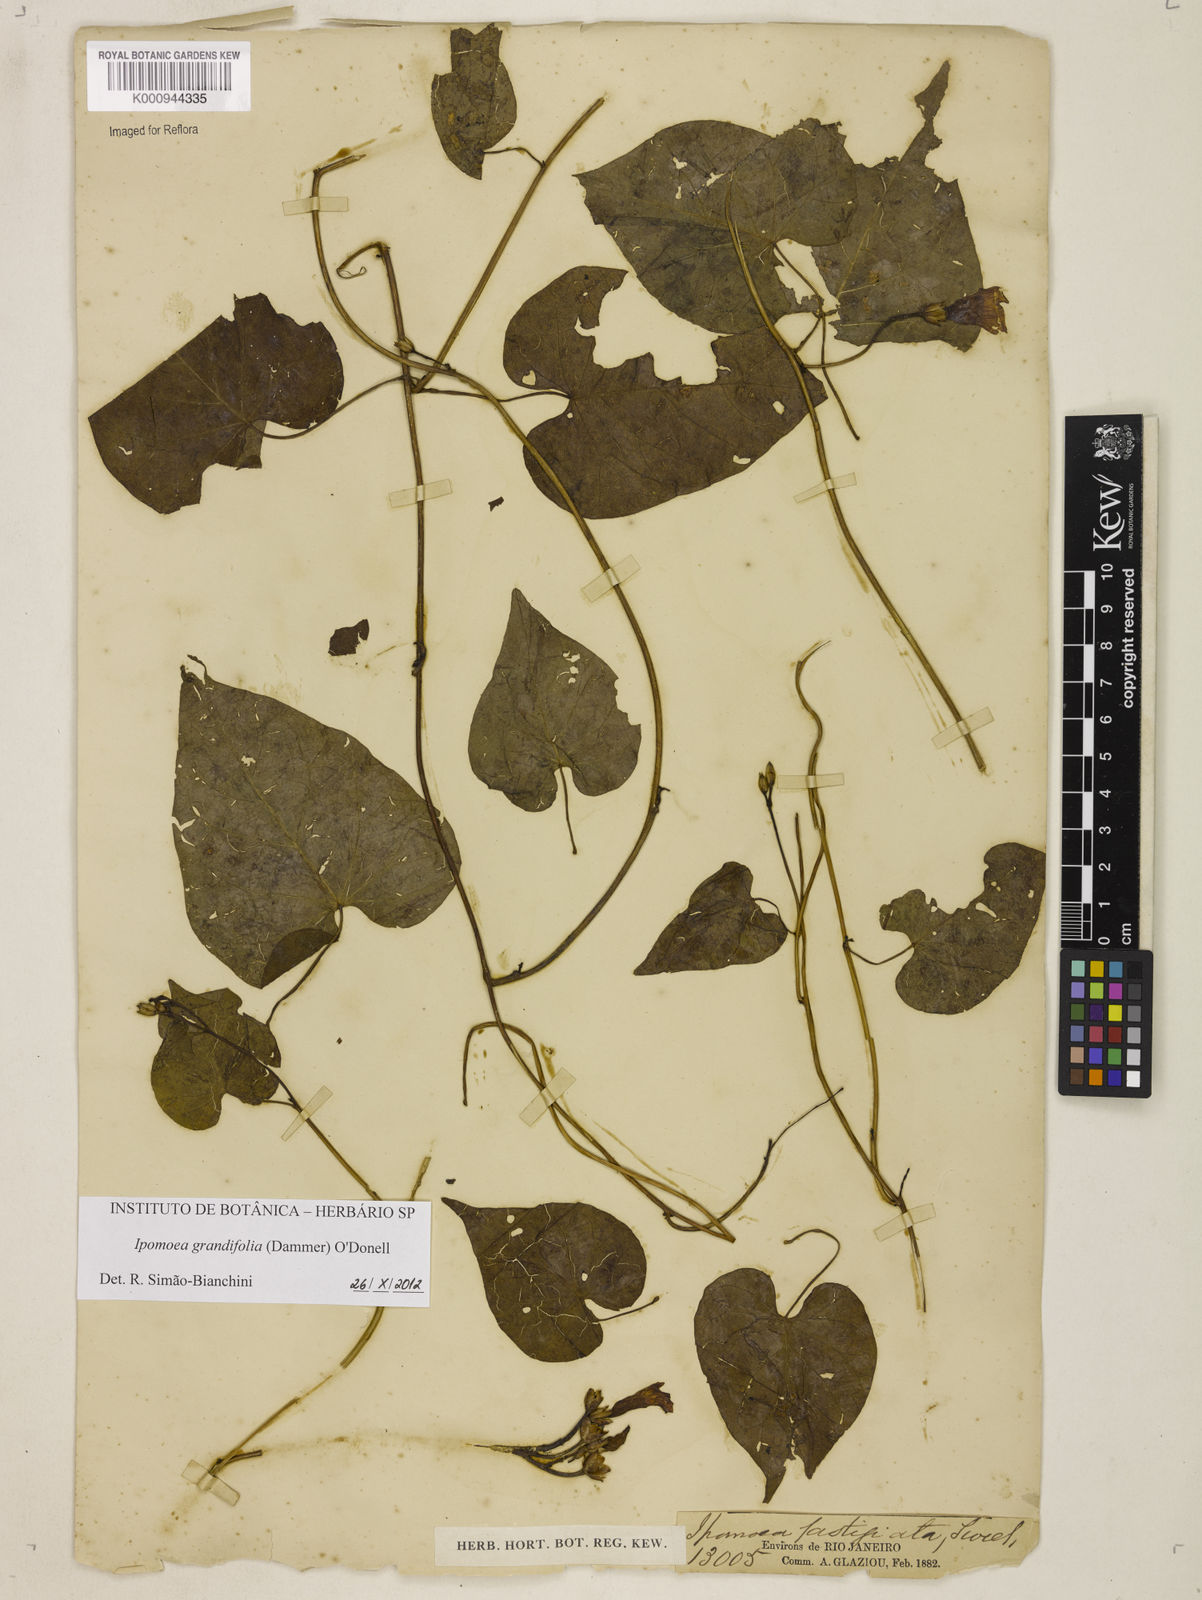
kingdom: Plantae
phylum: Tracheophyta
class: Magnoliopsida
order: Solanales
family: Convolvulaceae
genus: Ipomoea
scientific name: Ipomoea grandifolia
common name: Aiea morning glory
